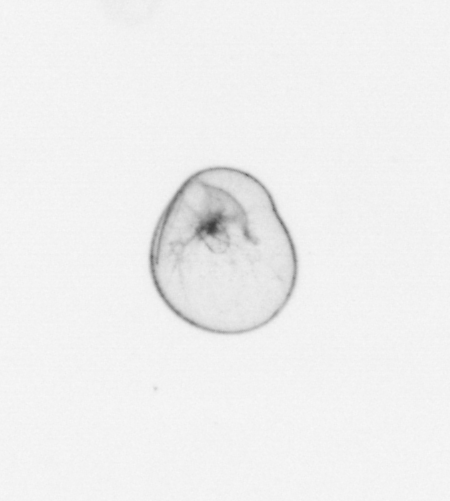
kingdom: Chromista
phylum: Myzozoa
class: Dinophyceae
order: Noctilucales
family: Noctilucaceae
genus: Noctiluca
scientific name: Noctiluca scintillans
